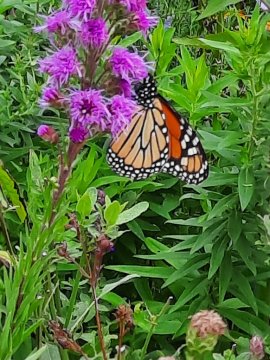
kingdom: Animalia
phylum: Arthropoda
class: Insecta
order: Lepidoptera
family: Nymphalidae
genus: Danaus
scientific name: Danaus plexippus
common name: Monarch
